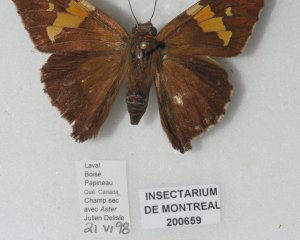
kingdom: Animalia
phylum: Arthropoda
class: Insecta
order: Lepidoptera
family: Hesperiidae
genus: Epargyreus
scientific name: Epargyreus clarus
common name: Silver-spotted Skipper
